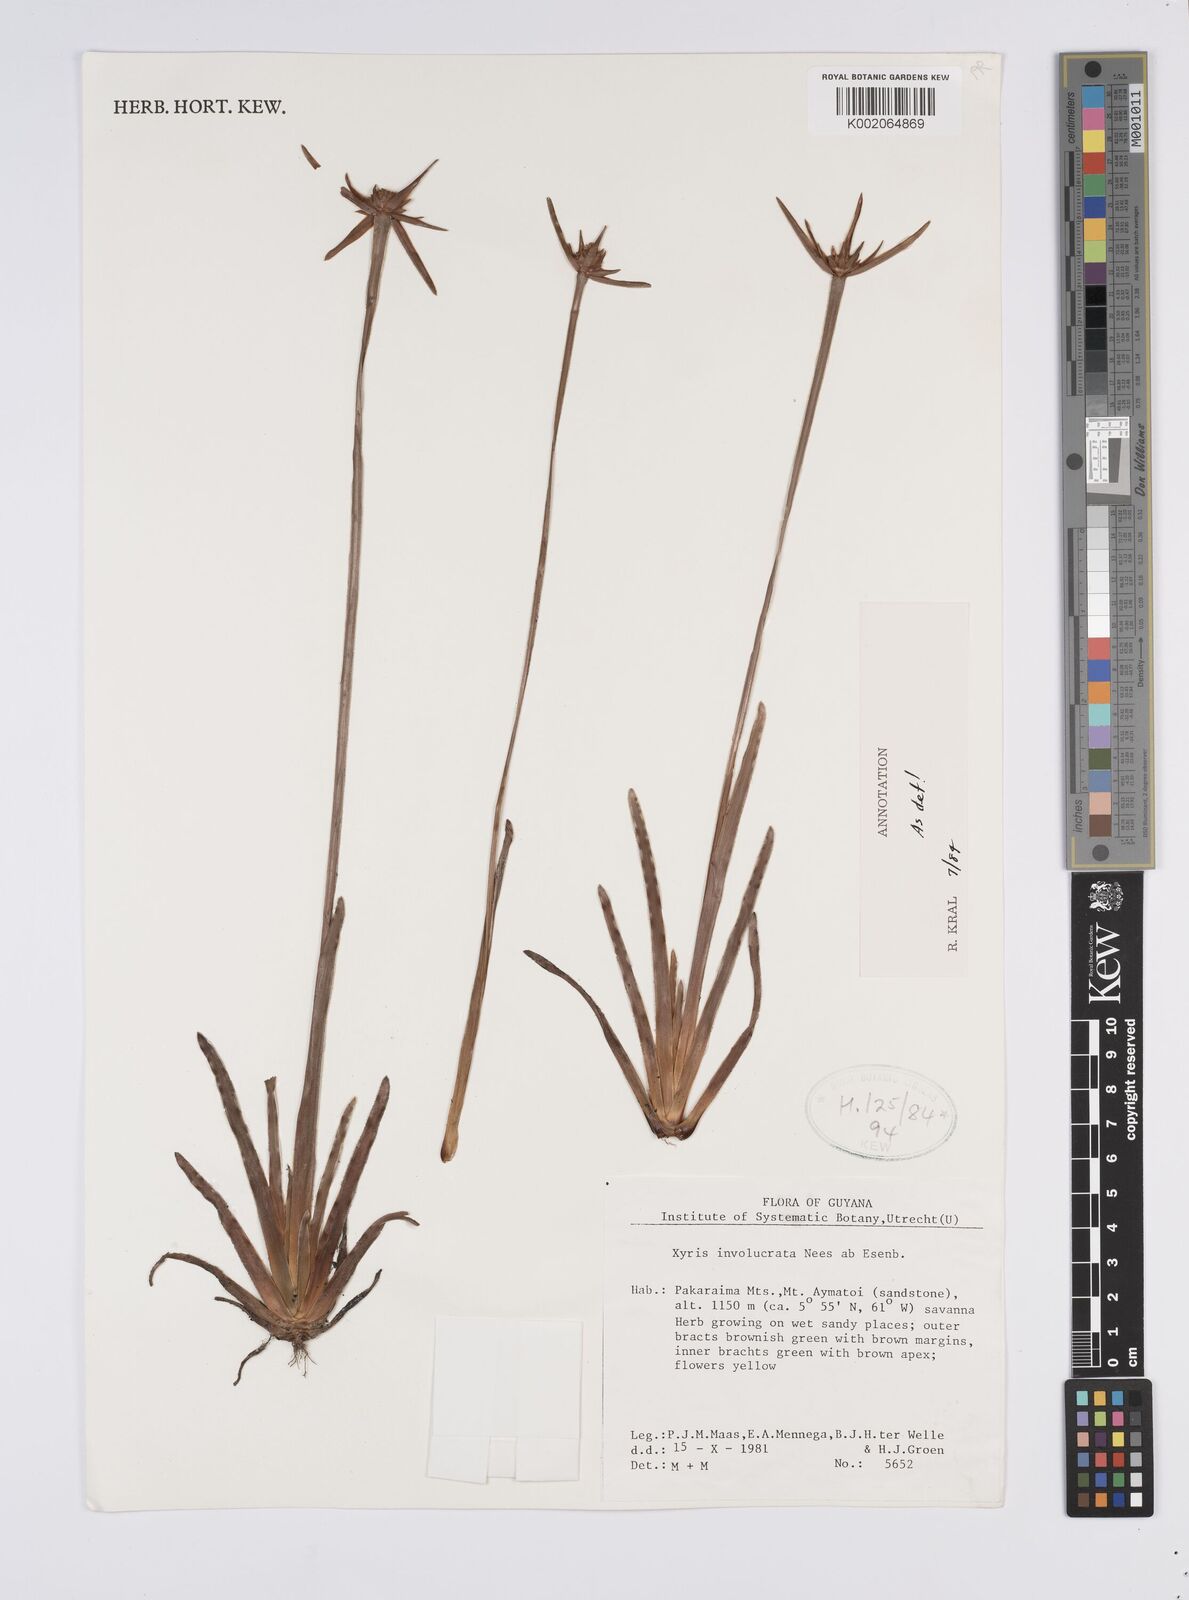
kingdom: Plantae
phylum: Tracheophyta
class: Liliopsida
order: Poales
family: Xyridaceae
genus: Xyris
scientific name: Xyris involucrata
